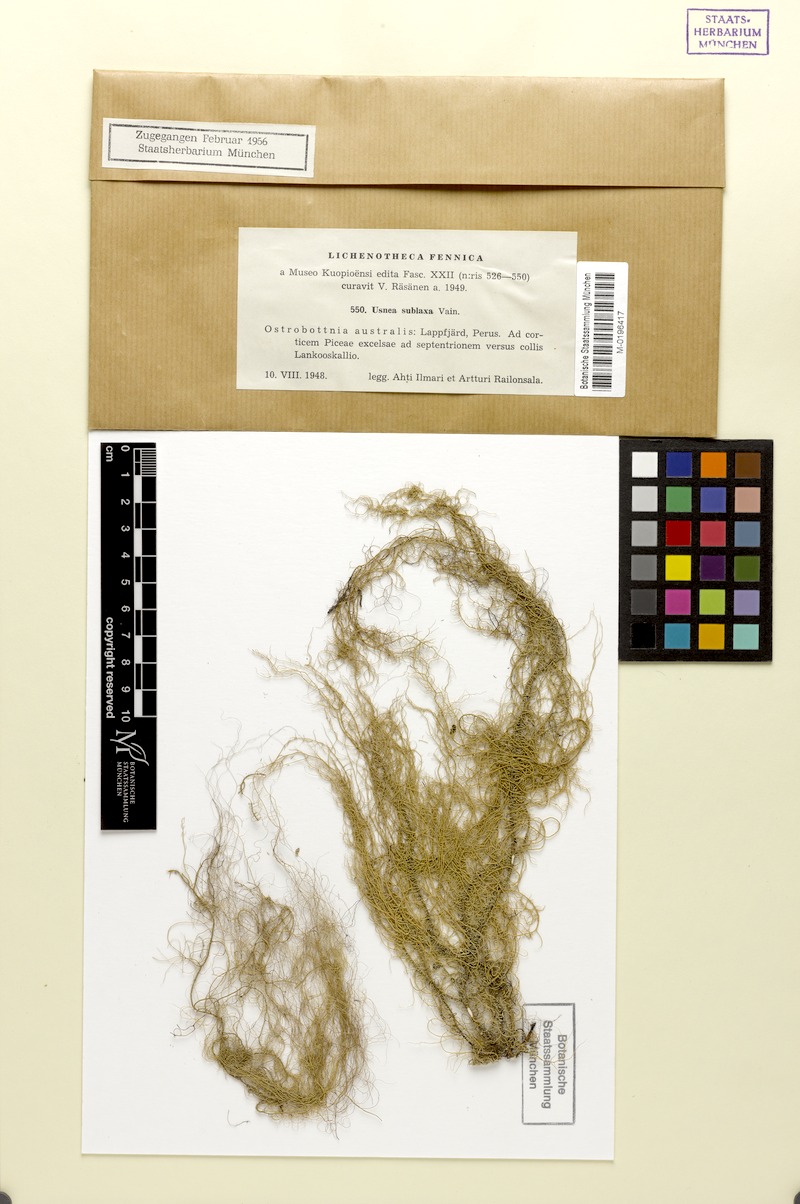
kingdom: Fungi
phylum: Ascomycota
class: Lecanoromycetes
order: Lecanorales
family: Parmeliaceae
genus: Usnea
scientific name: Usnea dasopoga
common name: Fishbone beard lichen
